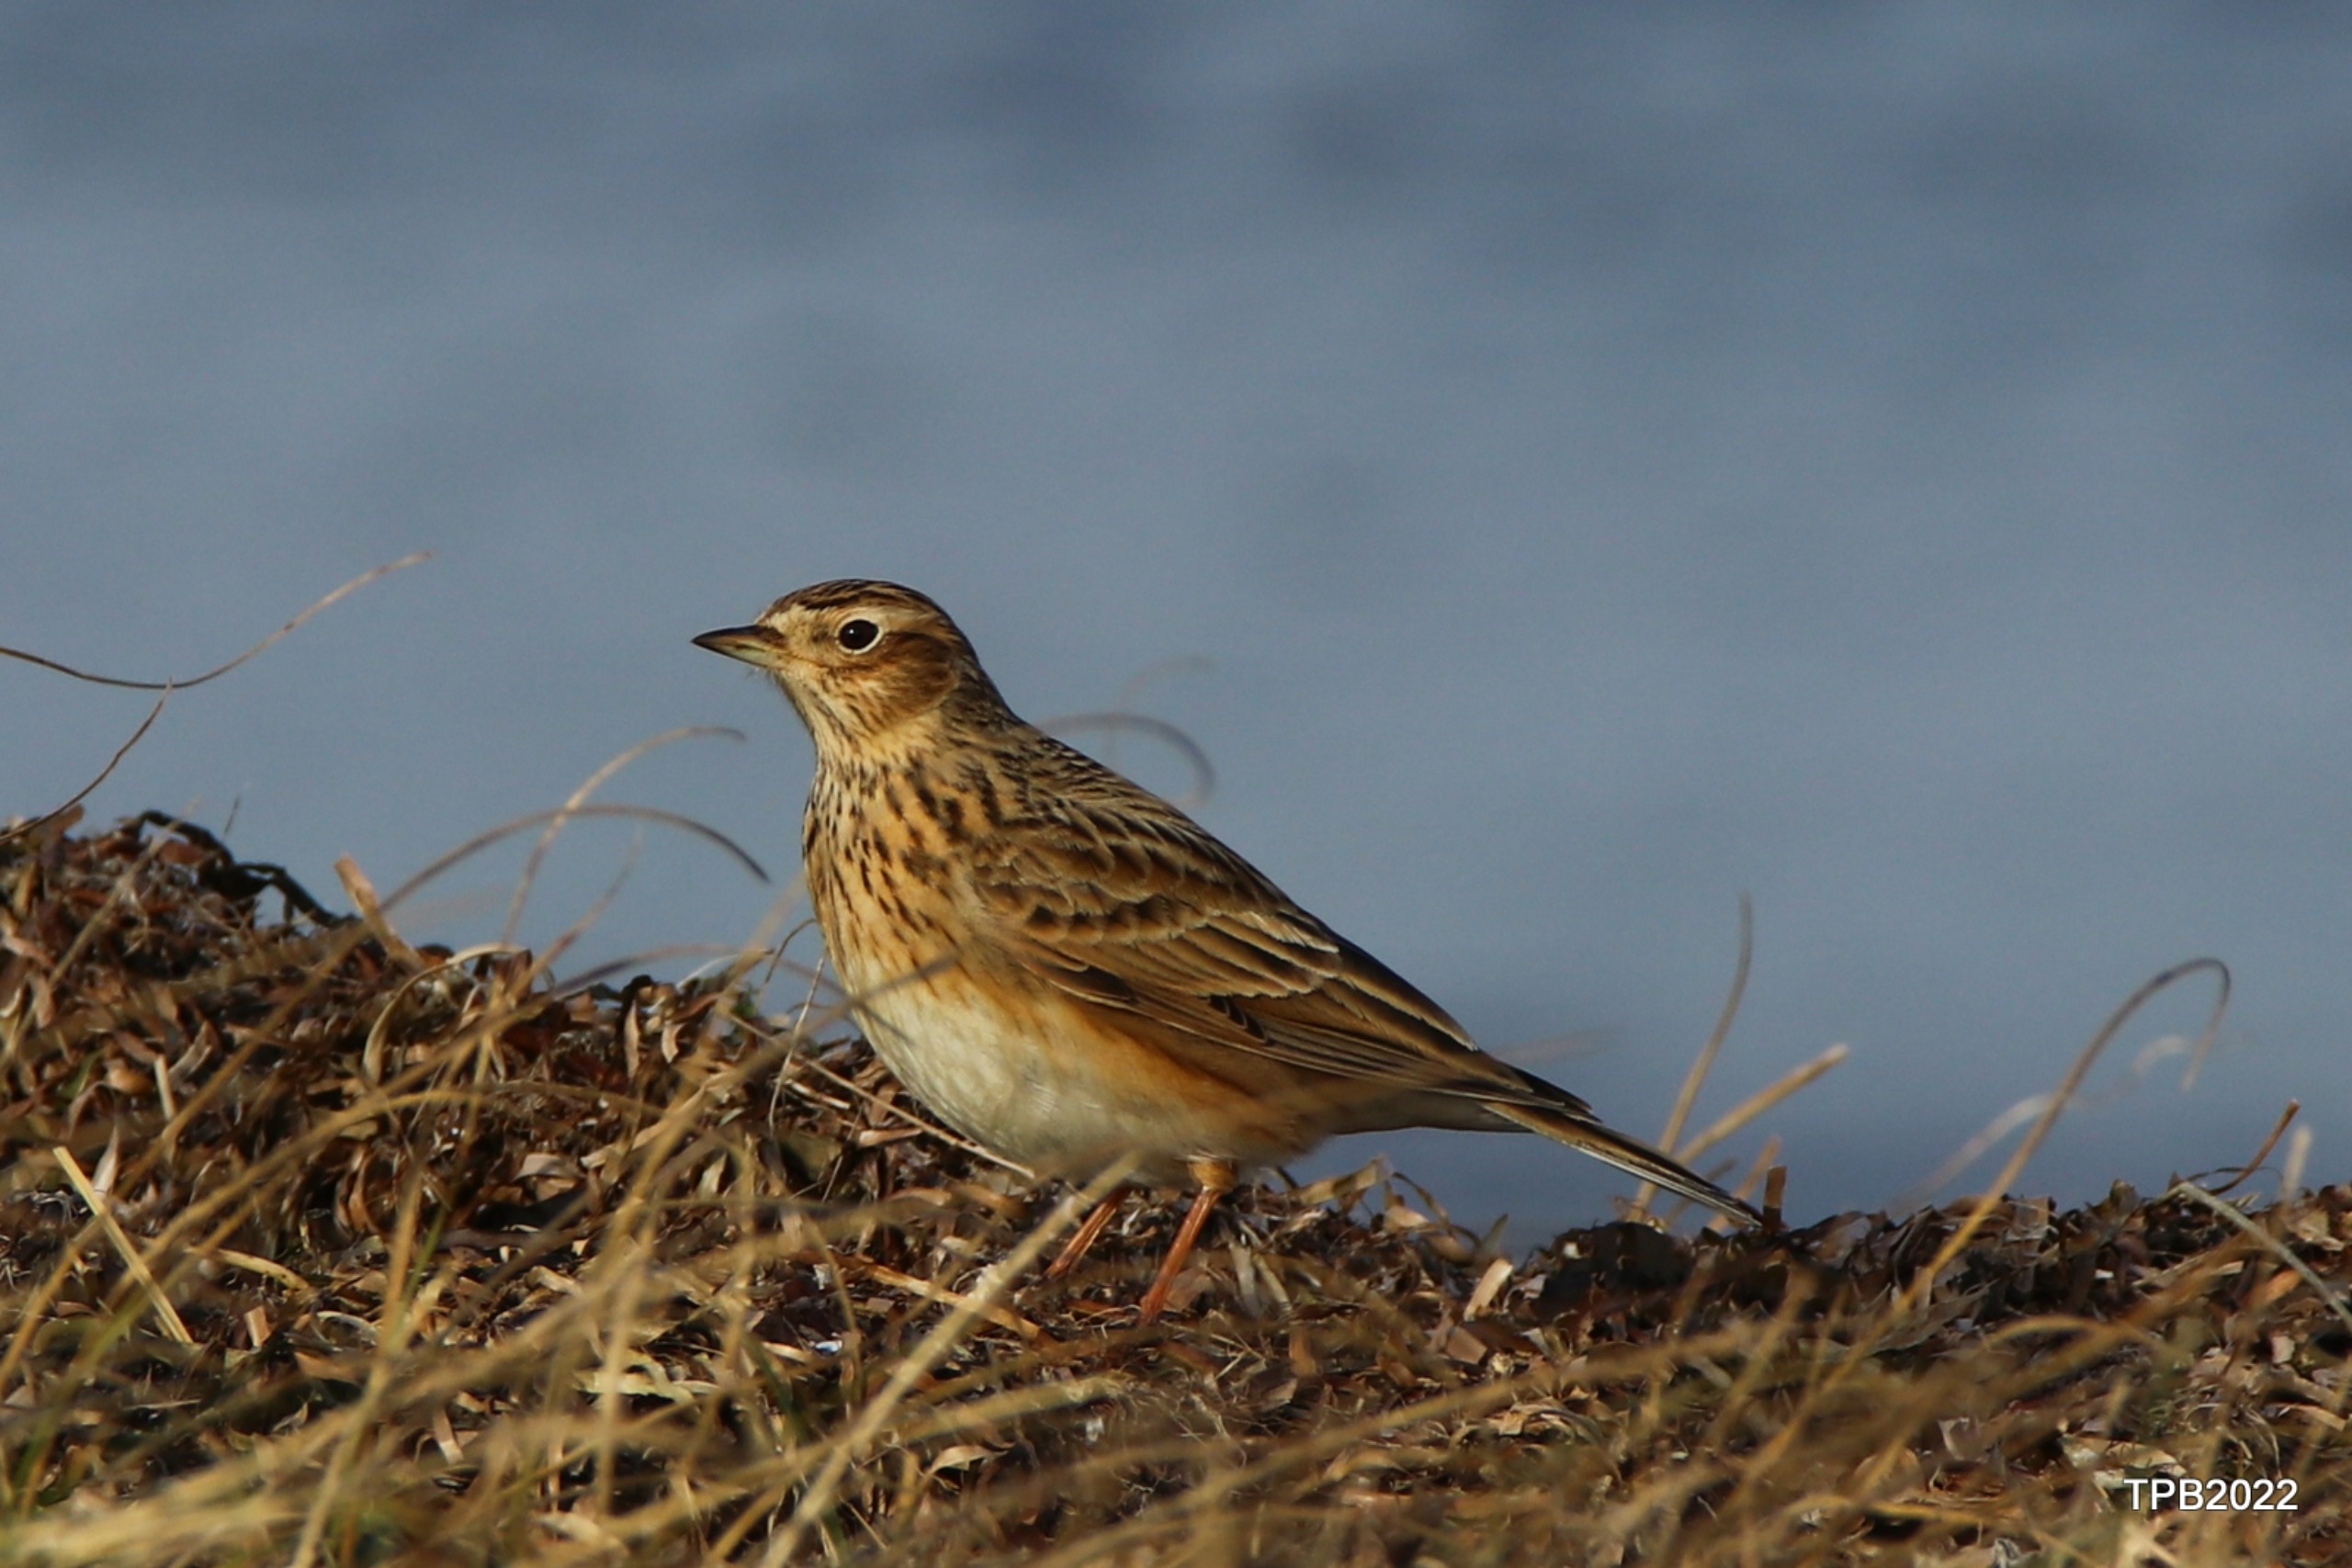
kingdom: Animalia
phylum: Chordata
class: Aves
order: Passeriformes
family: Alaudidae
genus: Alauda
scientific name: Alauda arvensis
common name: Sanglærke
